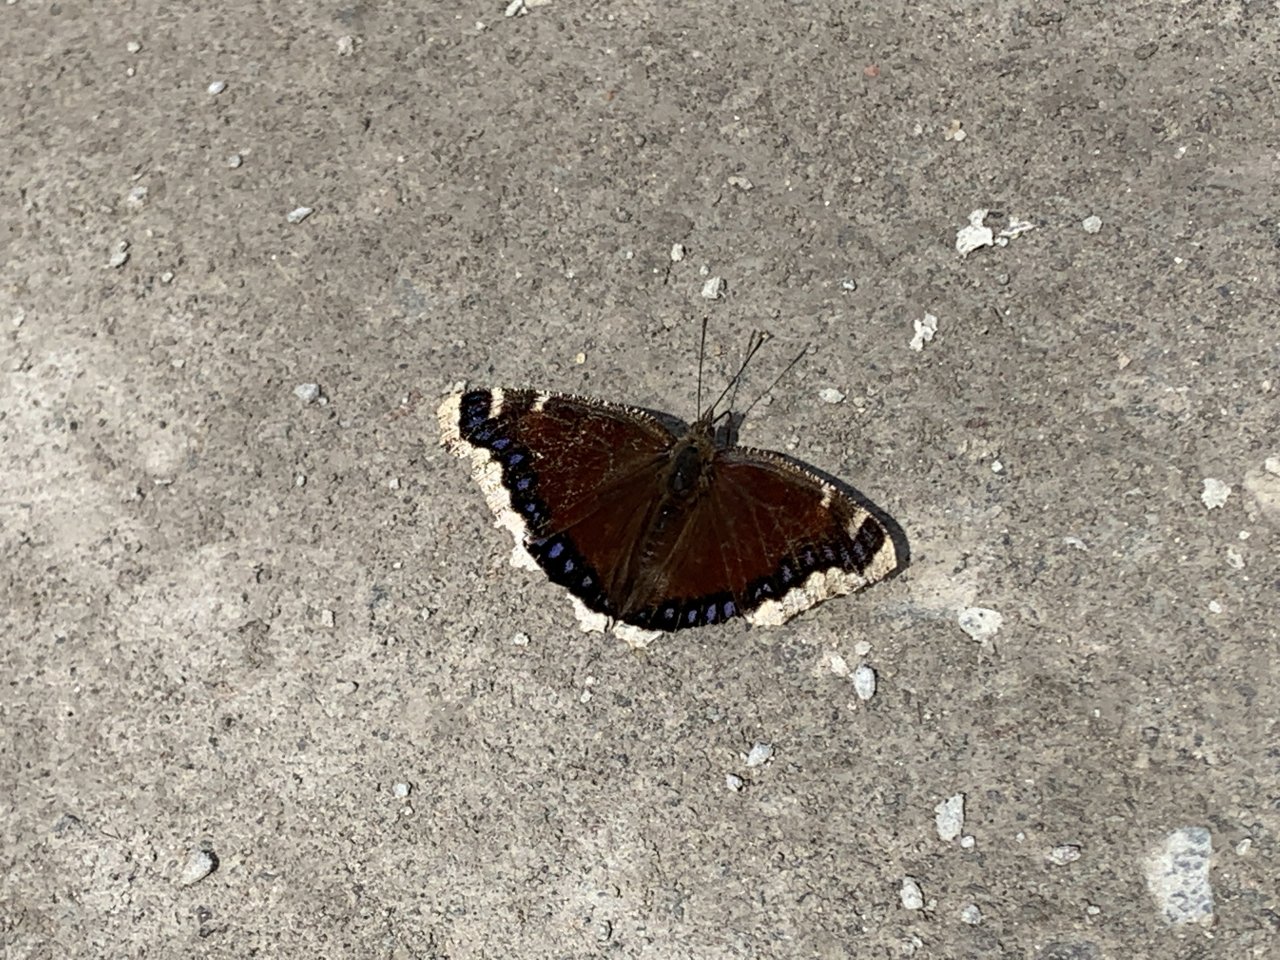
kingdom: Animalia
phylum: Arthropoda
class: Insecta
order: Lepidoptera
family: Nymphalidae
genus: Nymphalis
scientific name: Nymphalis antiopa
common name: Mourning Cloak
